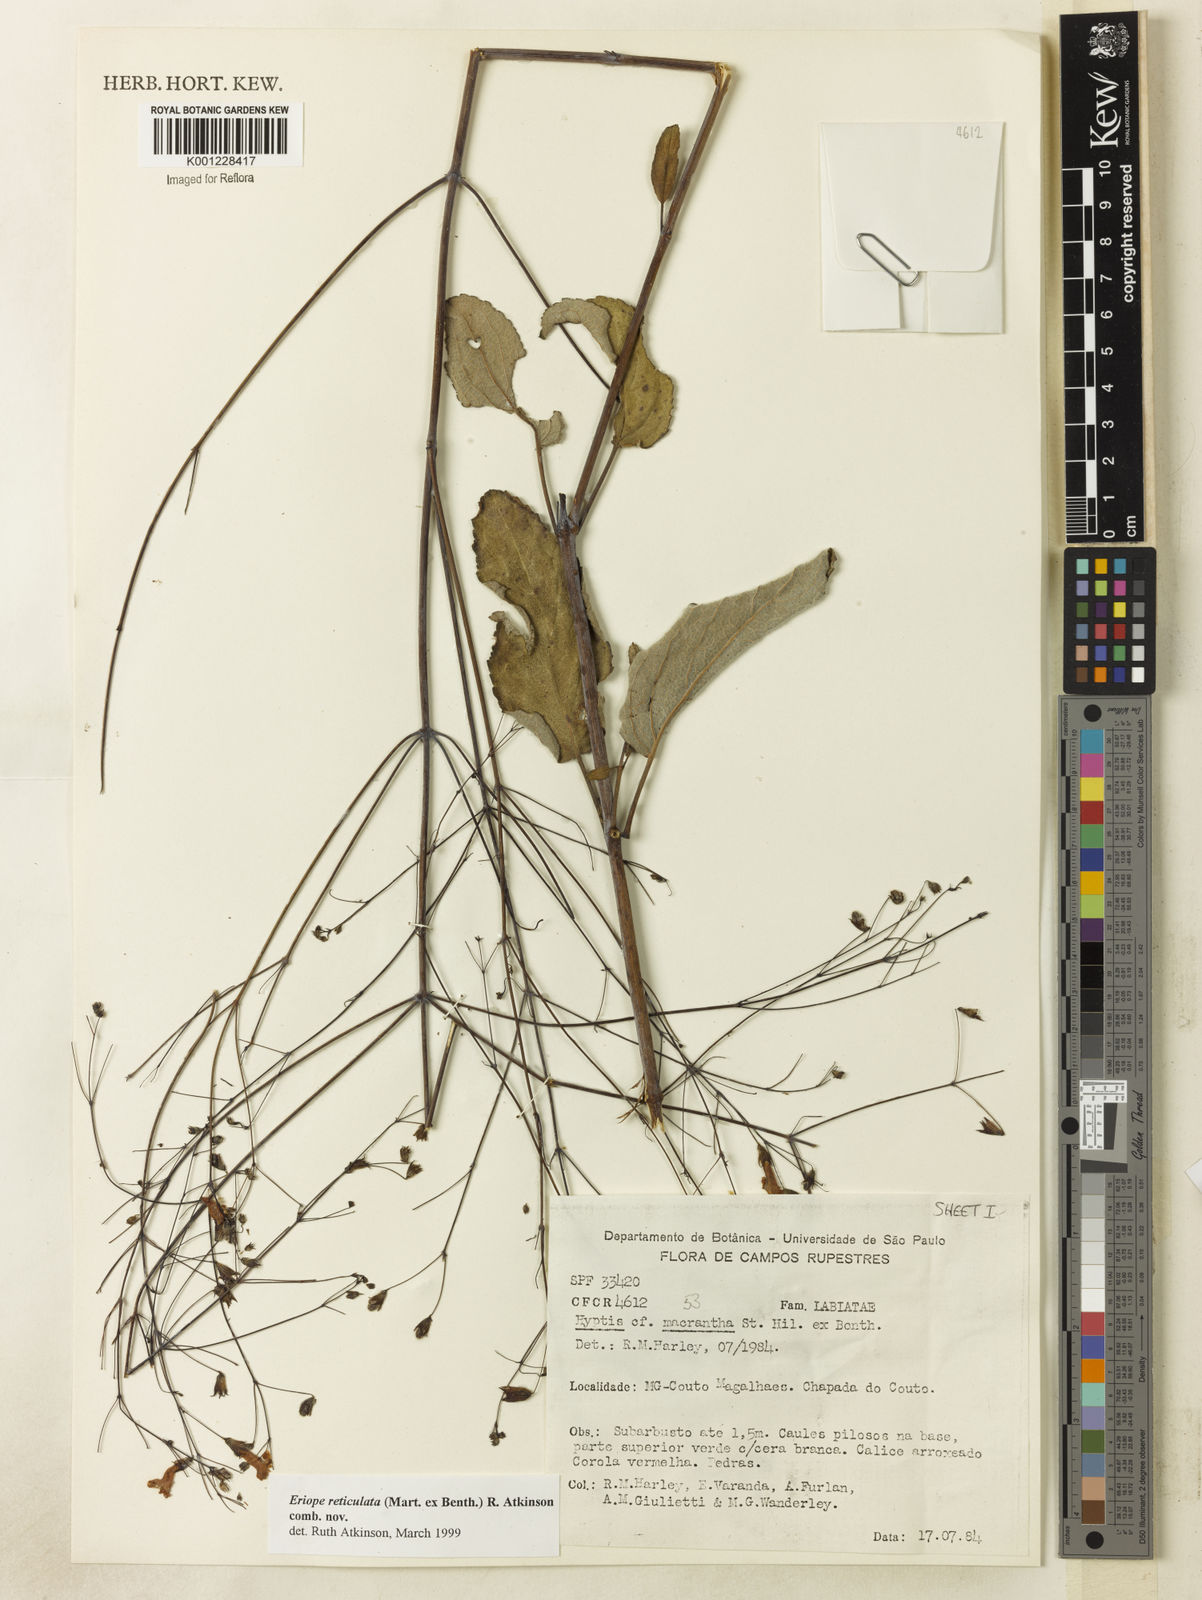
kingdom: Plantae
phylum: Tracheophyta
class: Magnoliopsida
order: Lamiales
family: Lamiaceae
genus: Hypenia
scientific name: Hypenia reticulata
